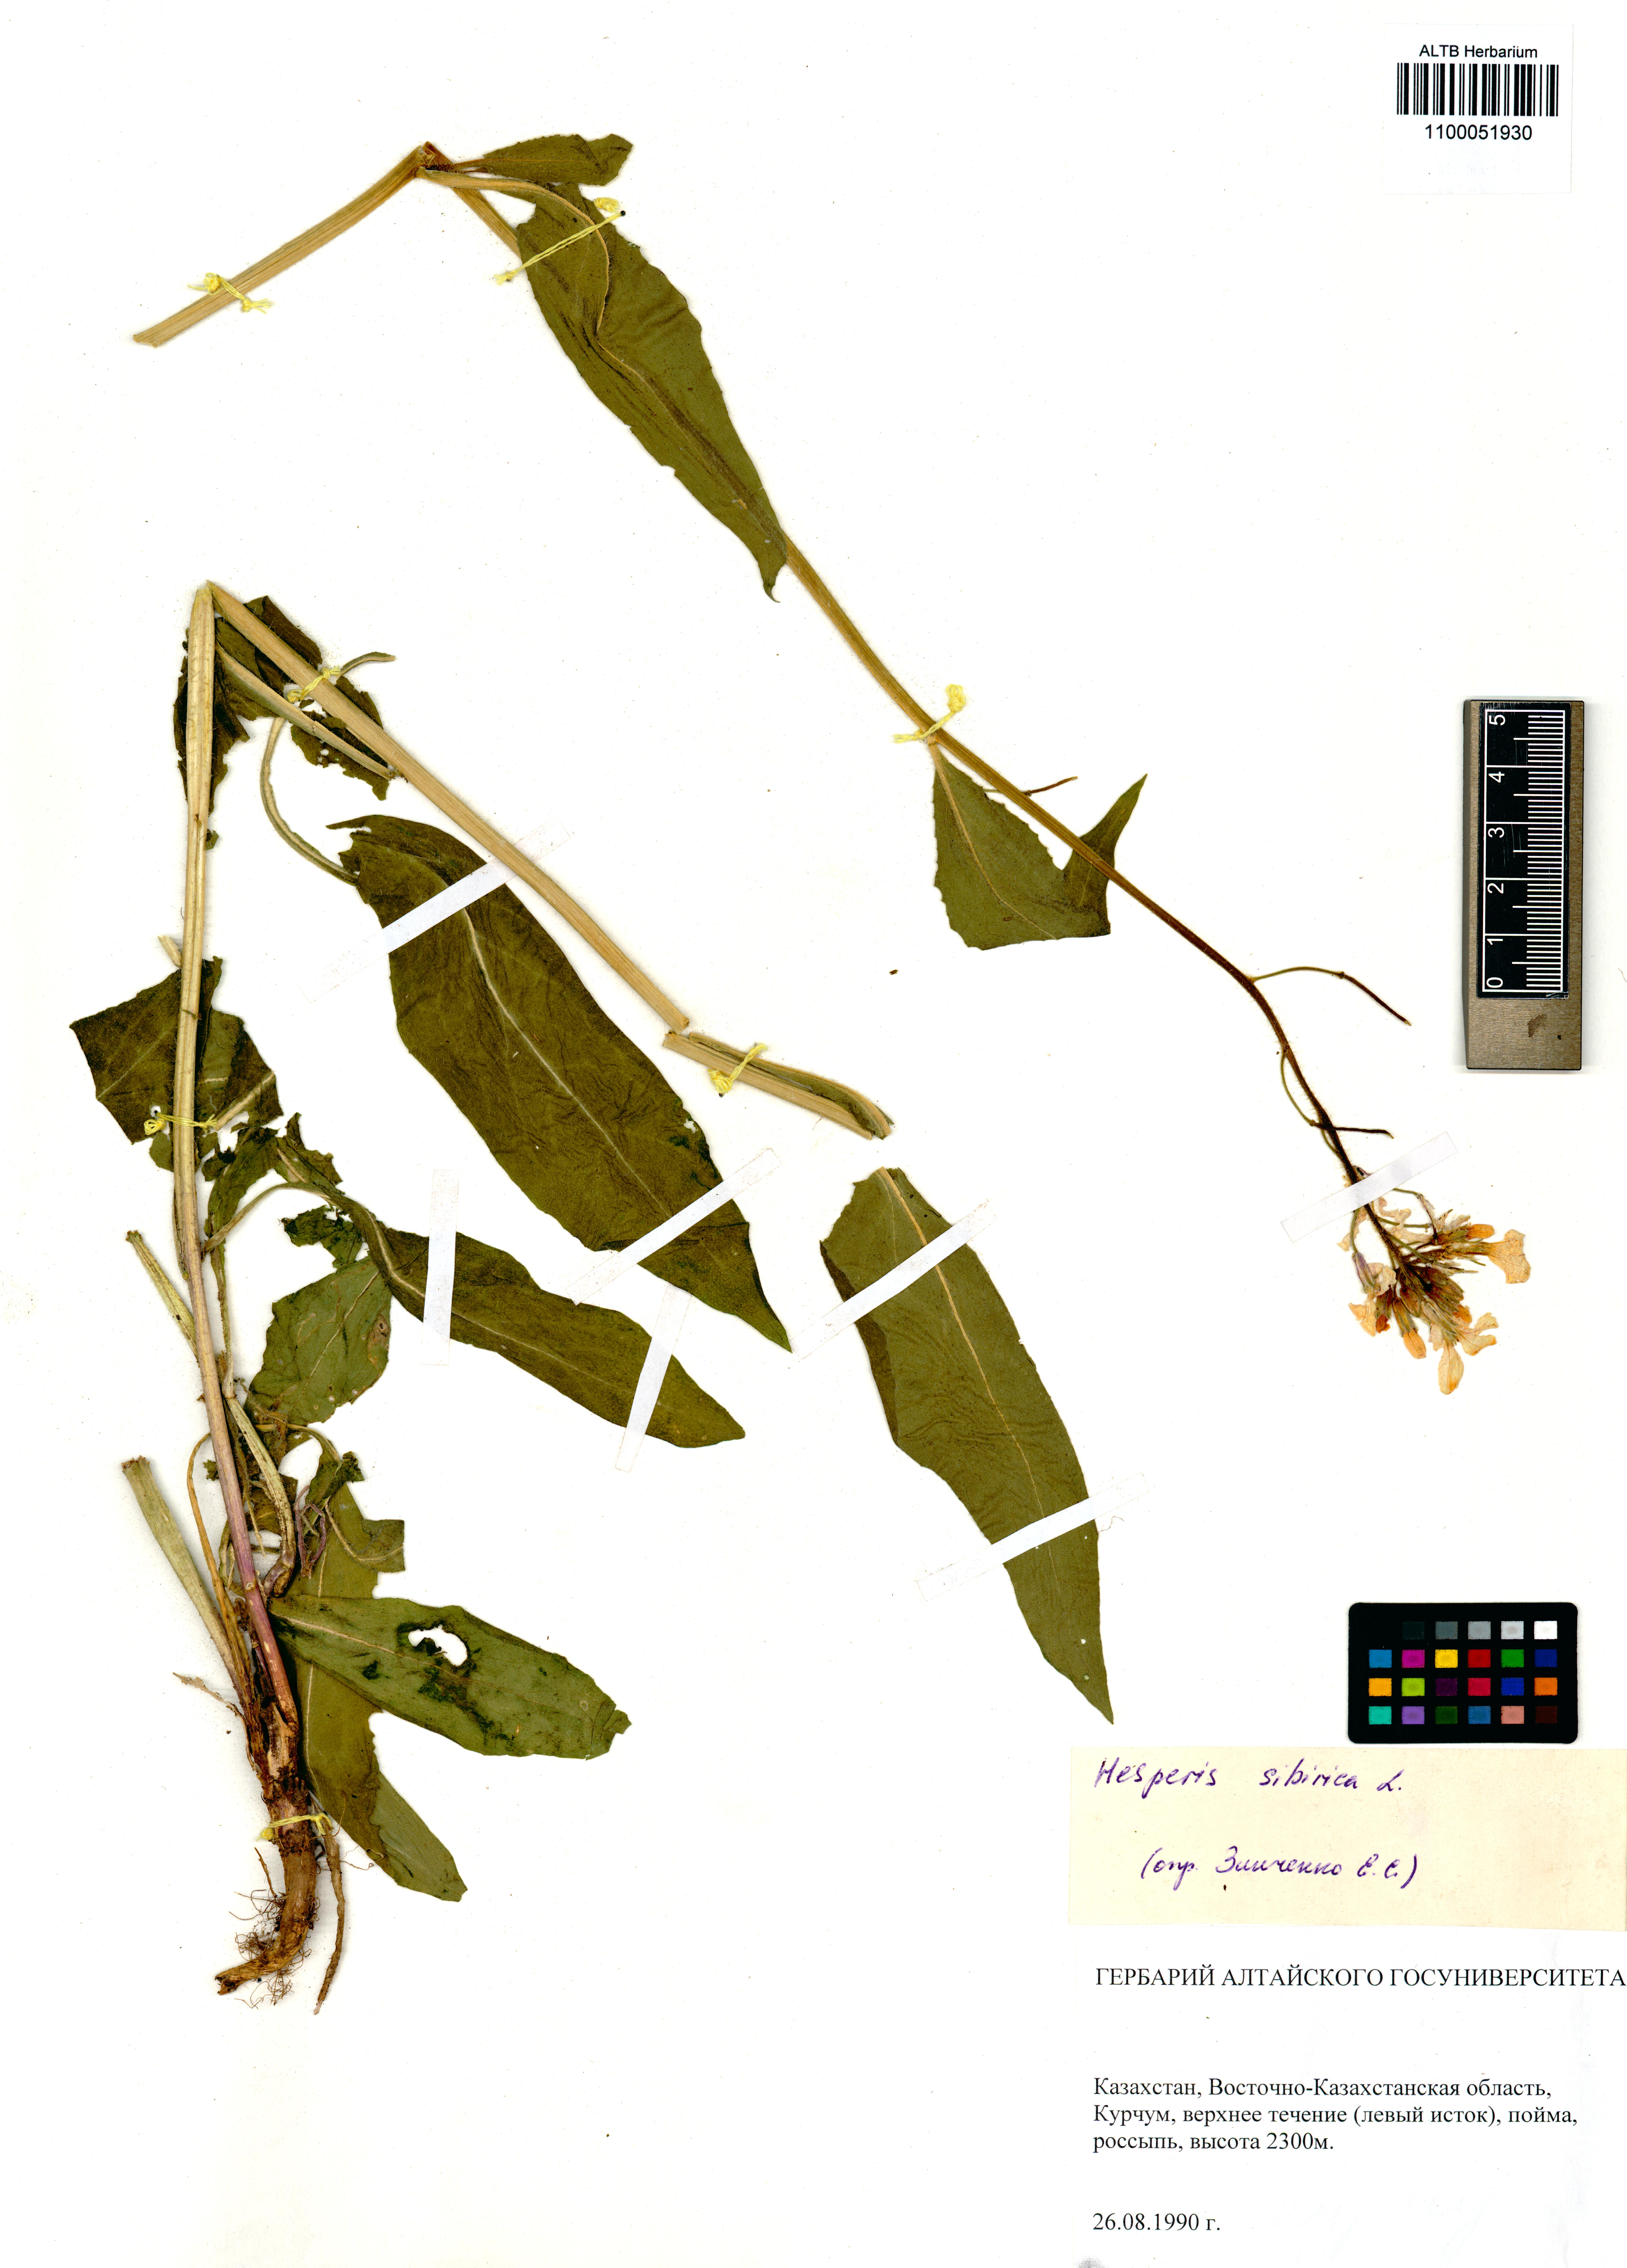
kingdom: Plantae
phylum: Tracheophyta
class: Magnoliopsida
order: Brassicales
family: Brassicaceae
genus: Hesperis
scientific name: Hesperis sibirica
